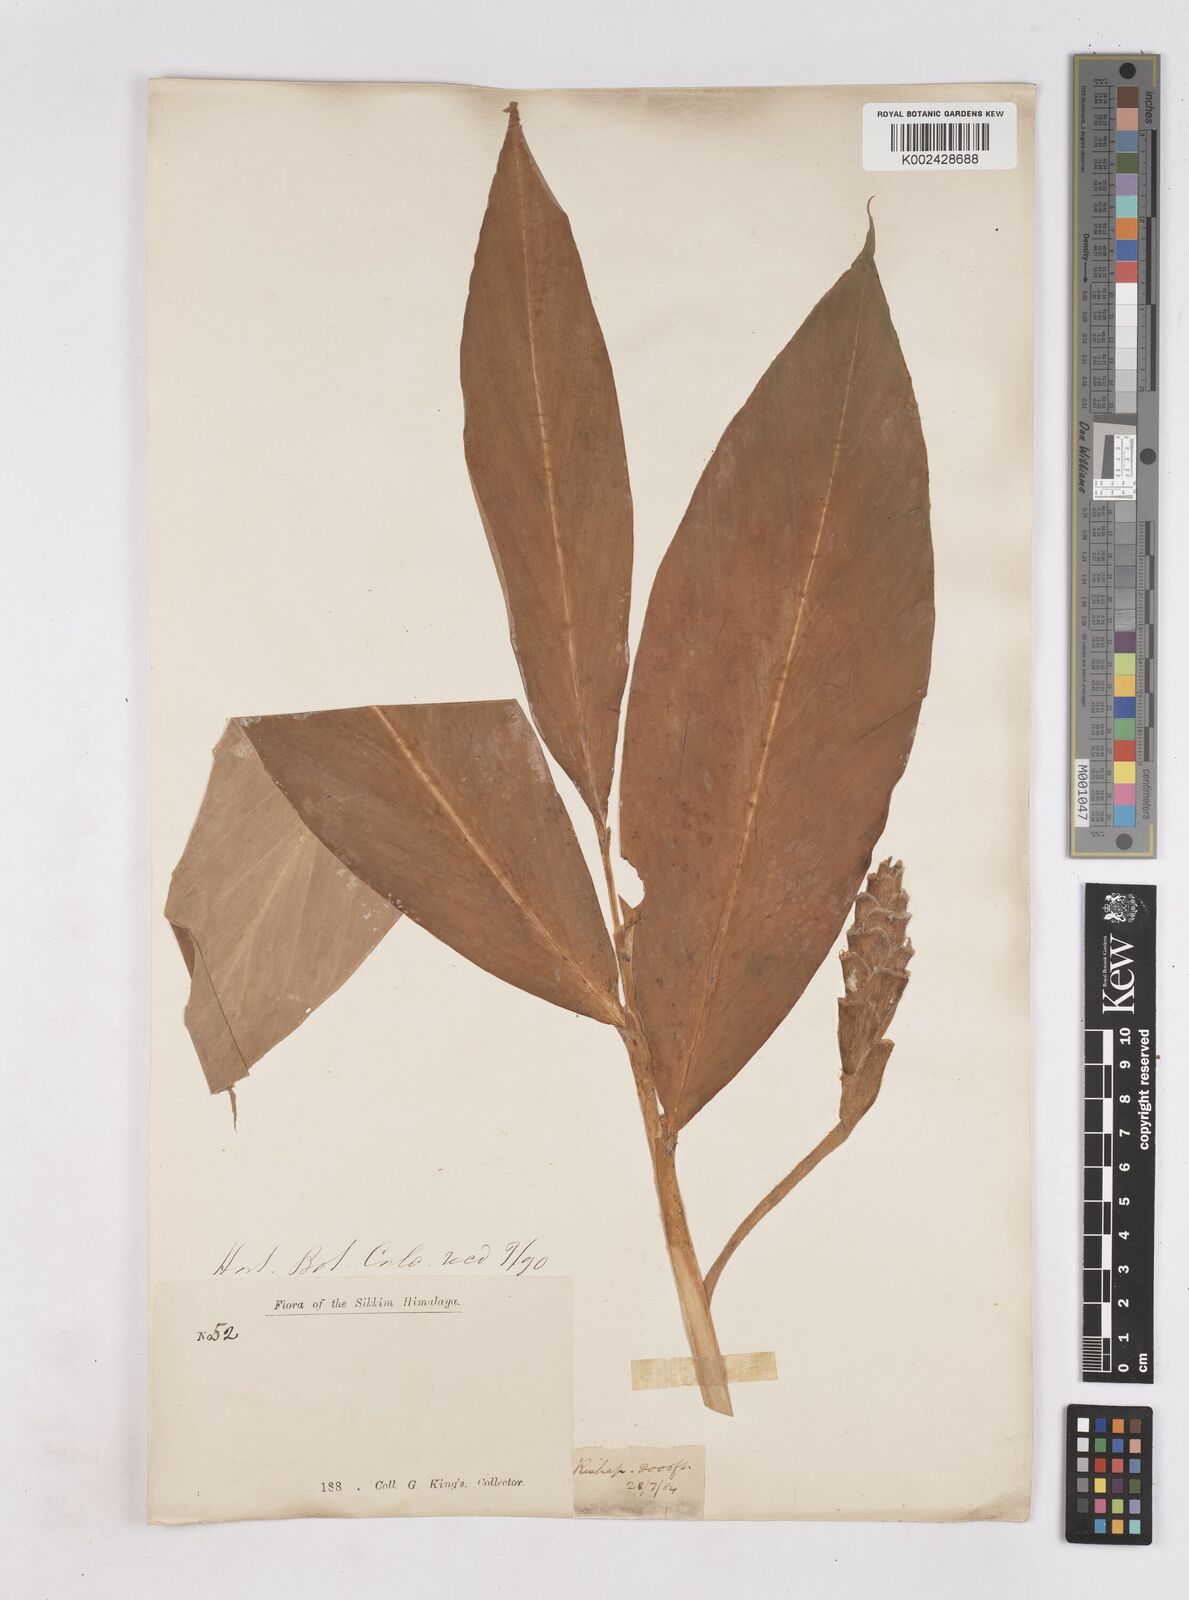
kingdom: Plantae
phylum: Tracheophyta
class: Liliopsida
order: Zingiberales
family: Zingiberaceae
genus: Zingiber
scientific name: Zingiber clarkei
